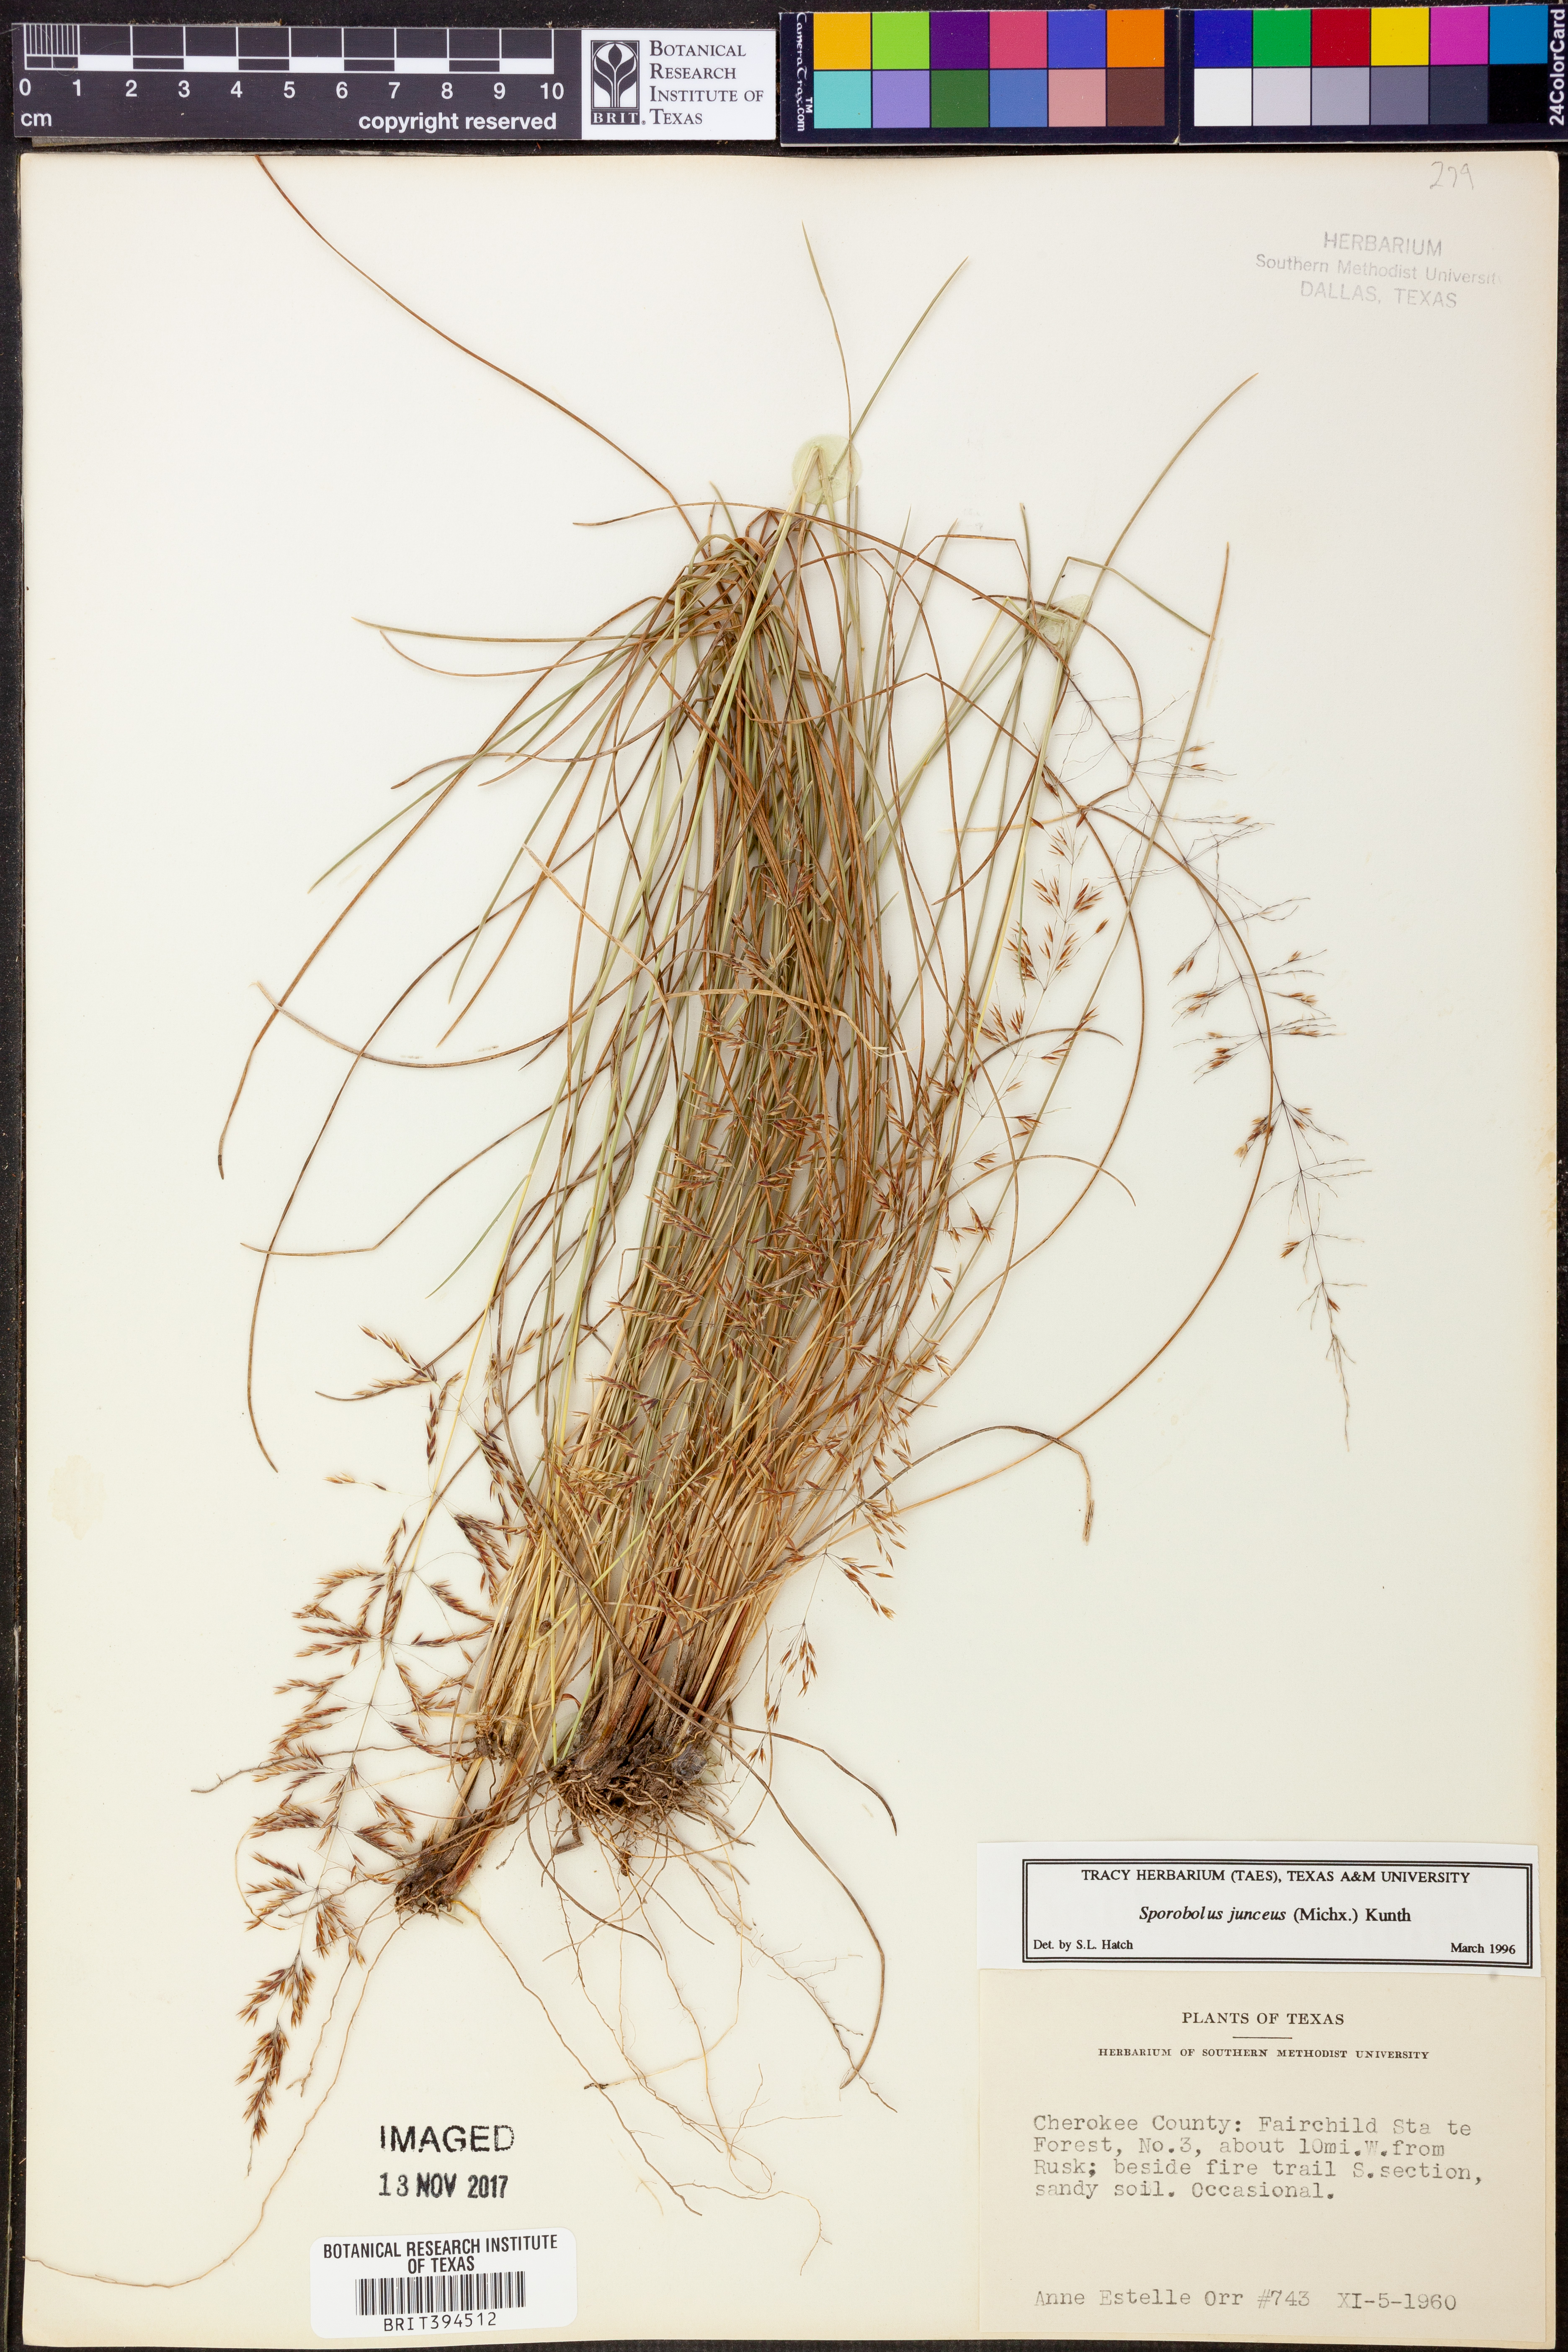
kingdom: Plantae
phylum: Tracheophyta
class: Liliopsida
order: Poales
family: Poaceae
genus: Sporobolus
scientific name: Sporobolus junceus
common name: Lizard grass
